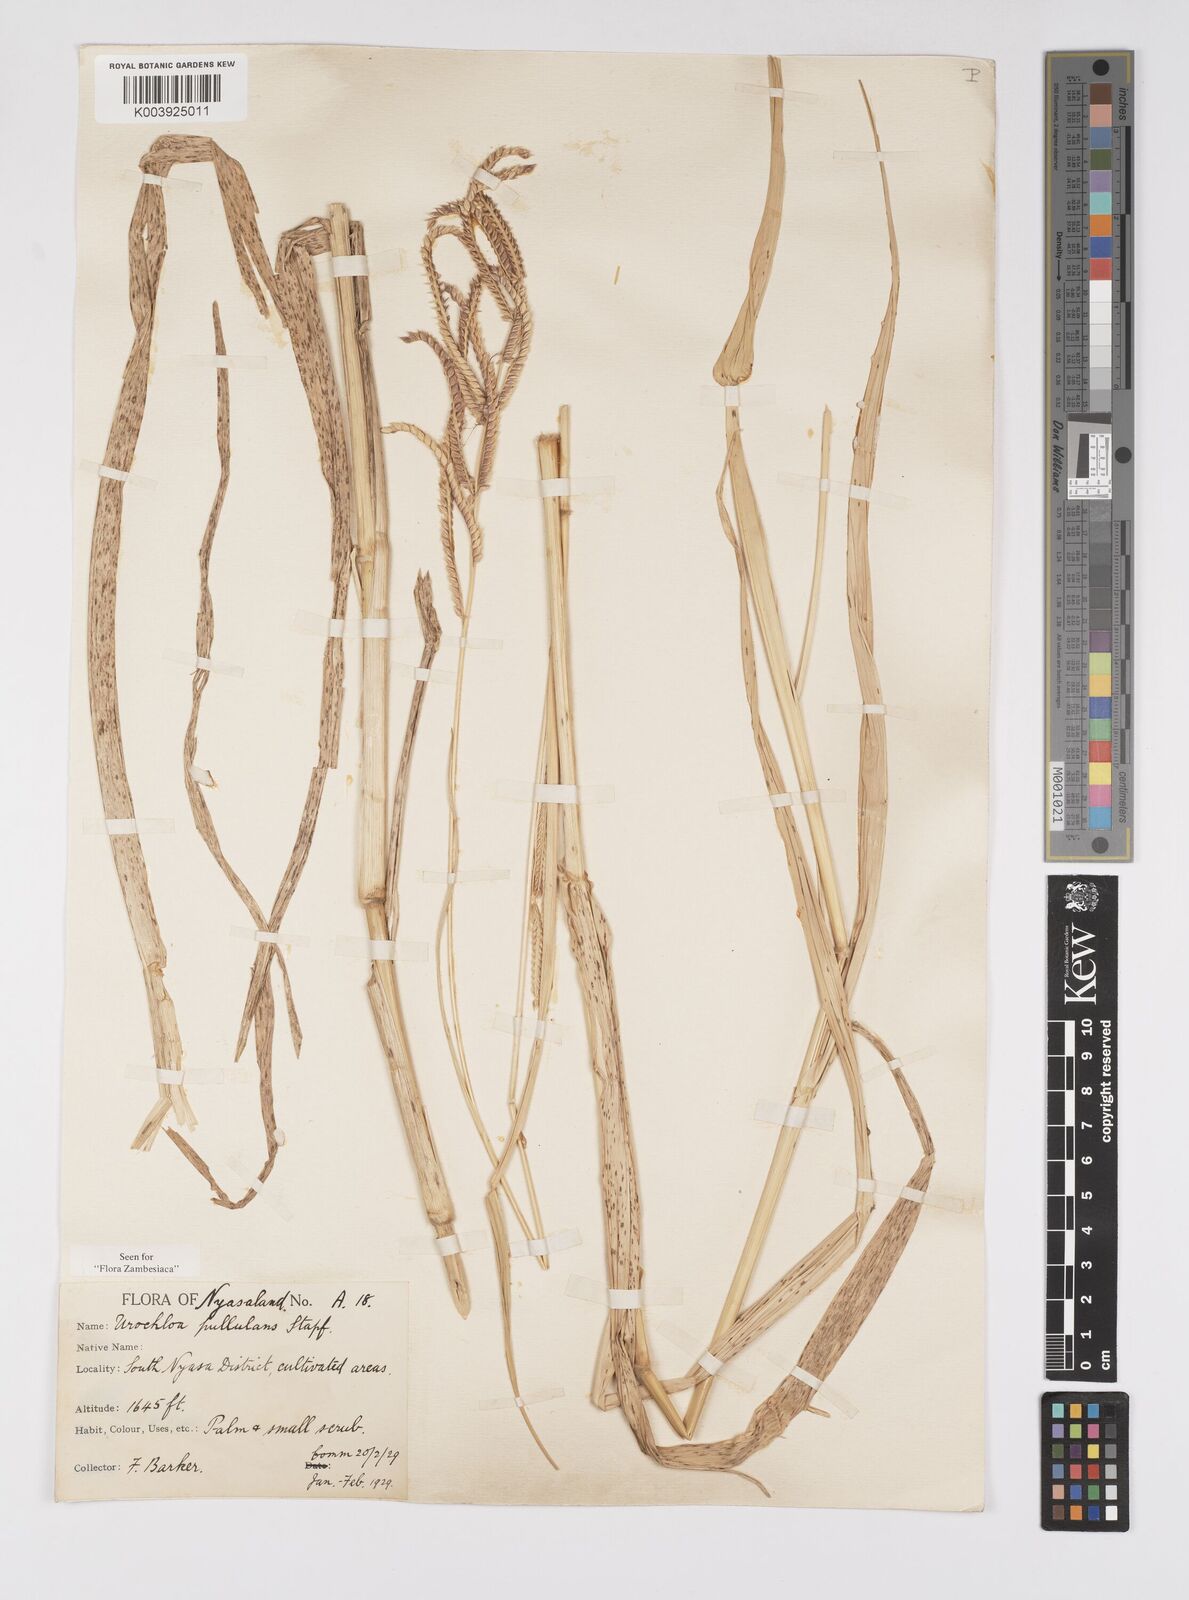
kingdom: Plantae
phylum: Tracheophyta
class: Liliopsida
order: Poales
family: Poaceae
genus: Urochloa
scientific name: Urochloa trichopus
